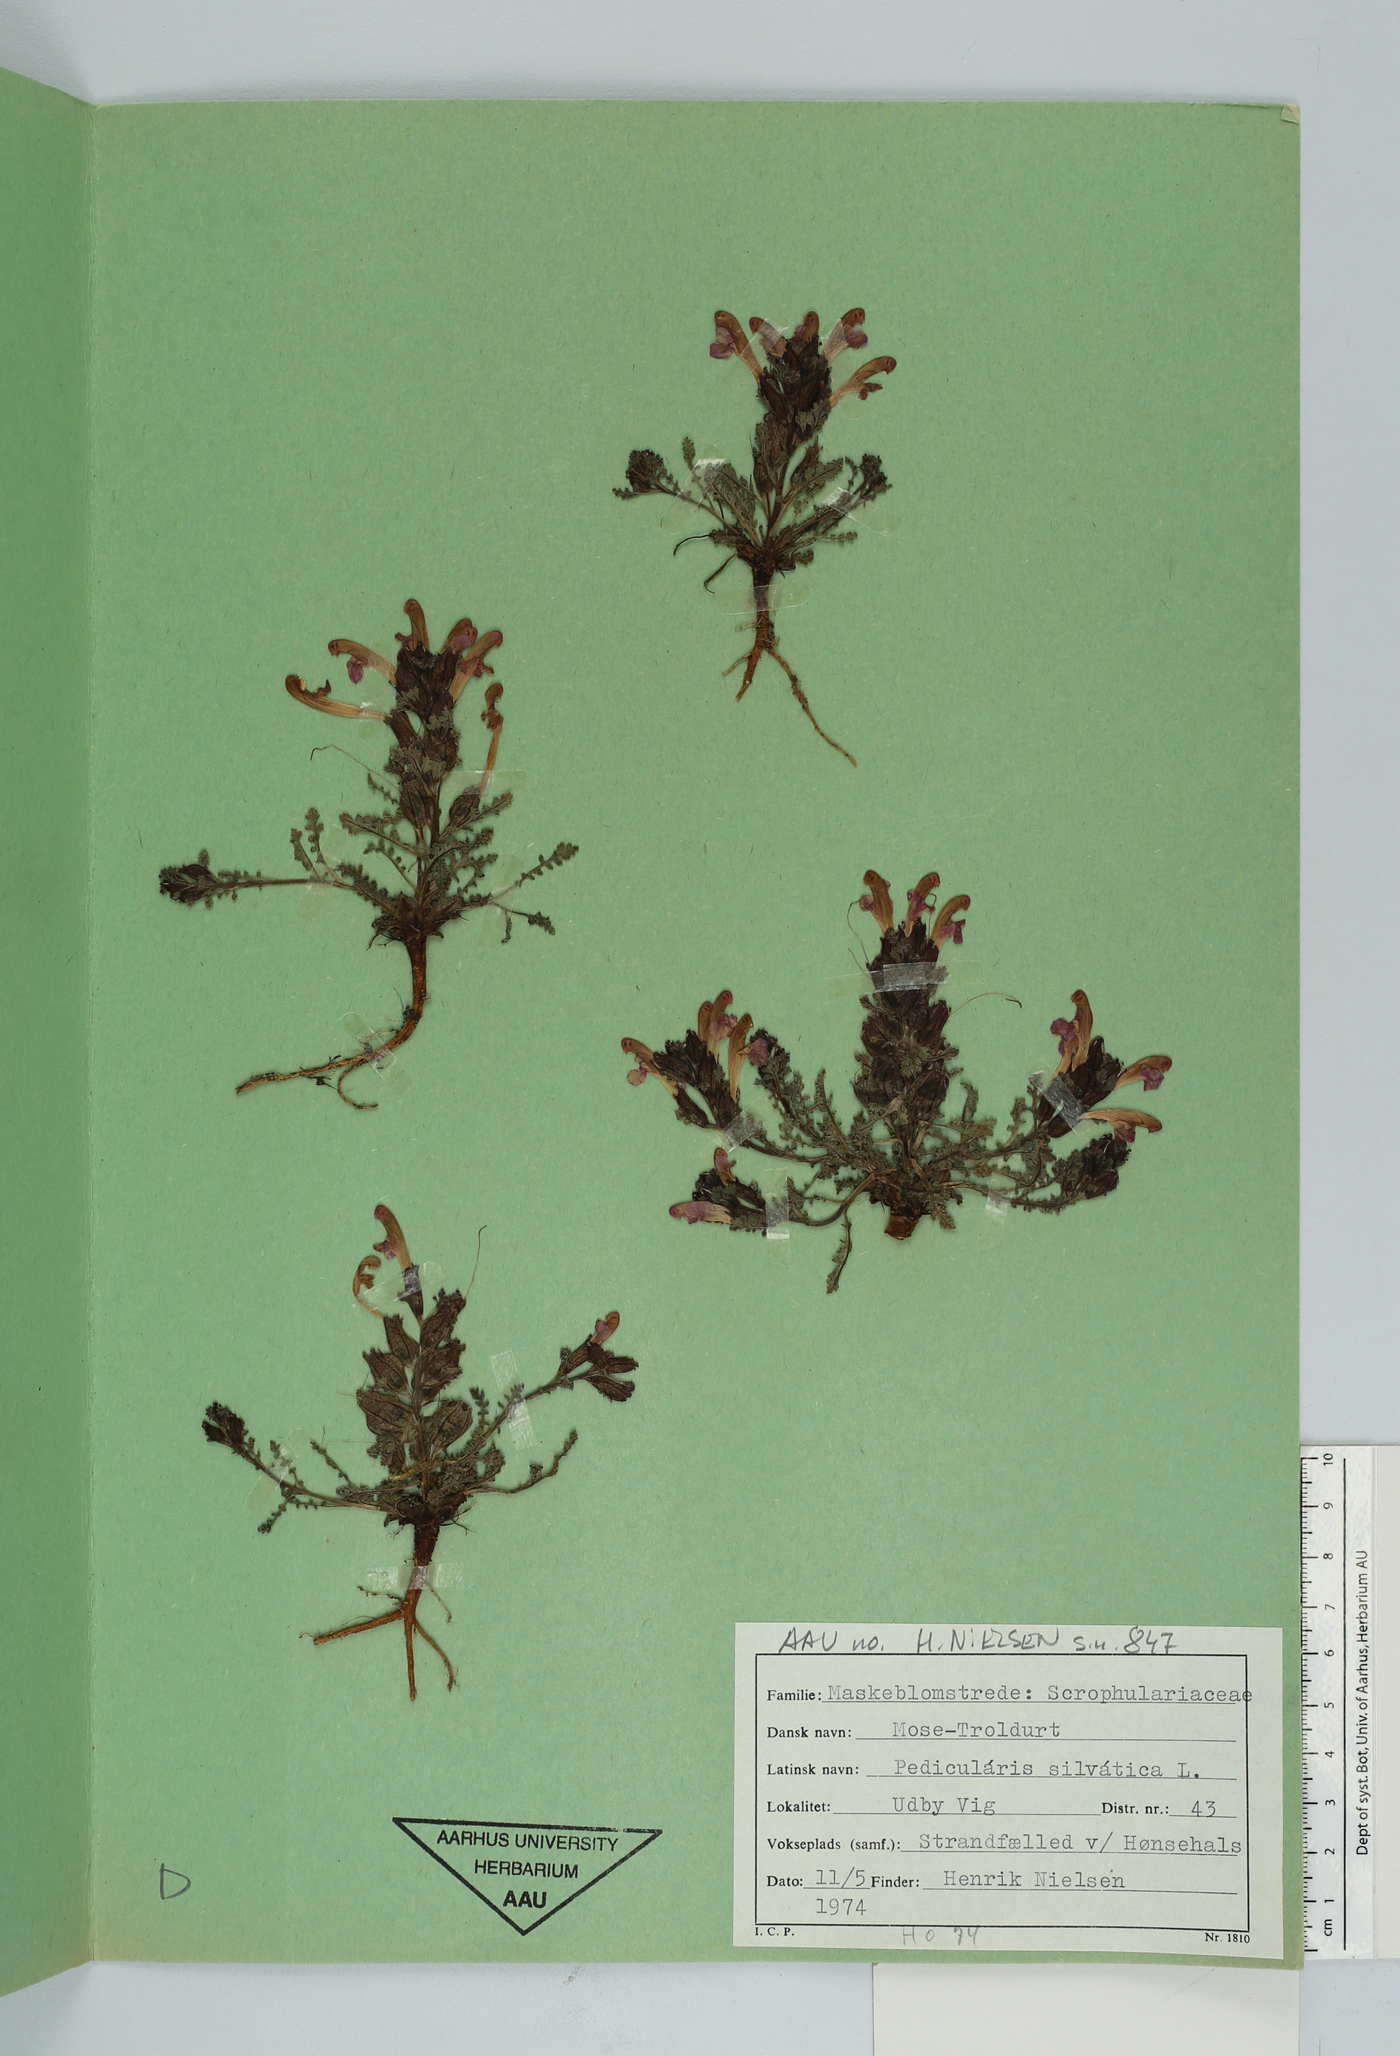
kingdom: Plantae
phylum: Tracheophyta
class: Magnoliopsida
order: Lamiales
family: Orobanchaceae
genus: Pedicularis
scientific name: Pedicularis sylvatica
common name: Lousewort
